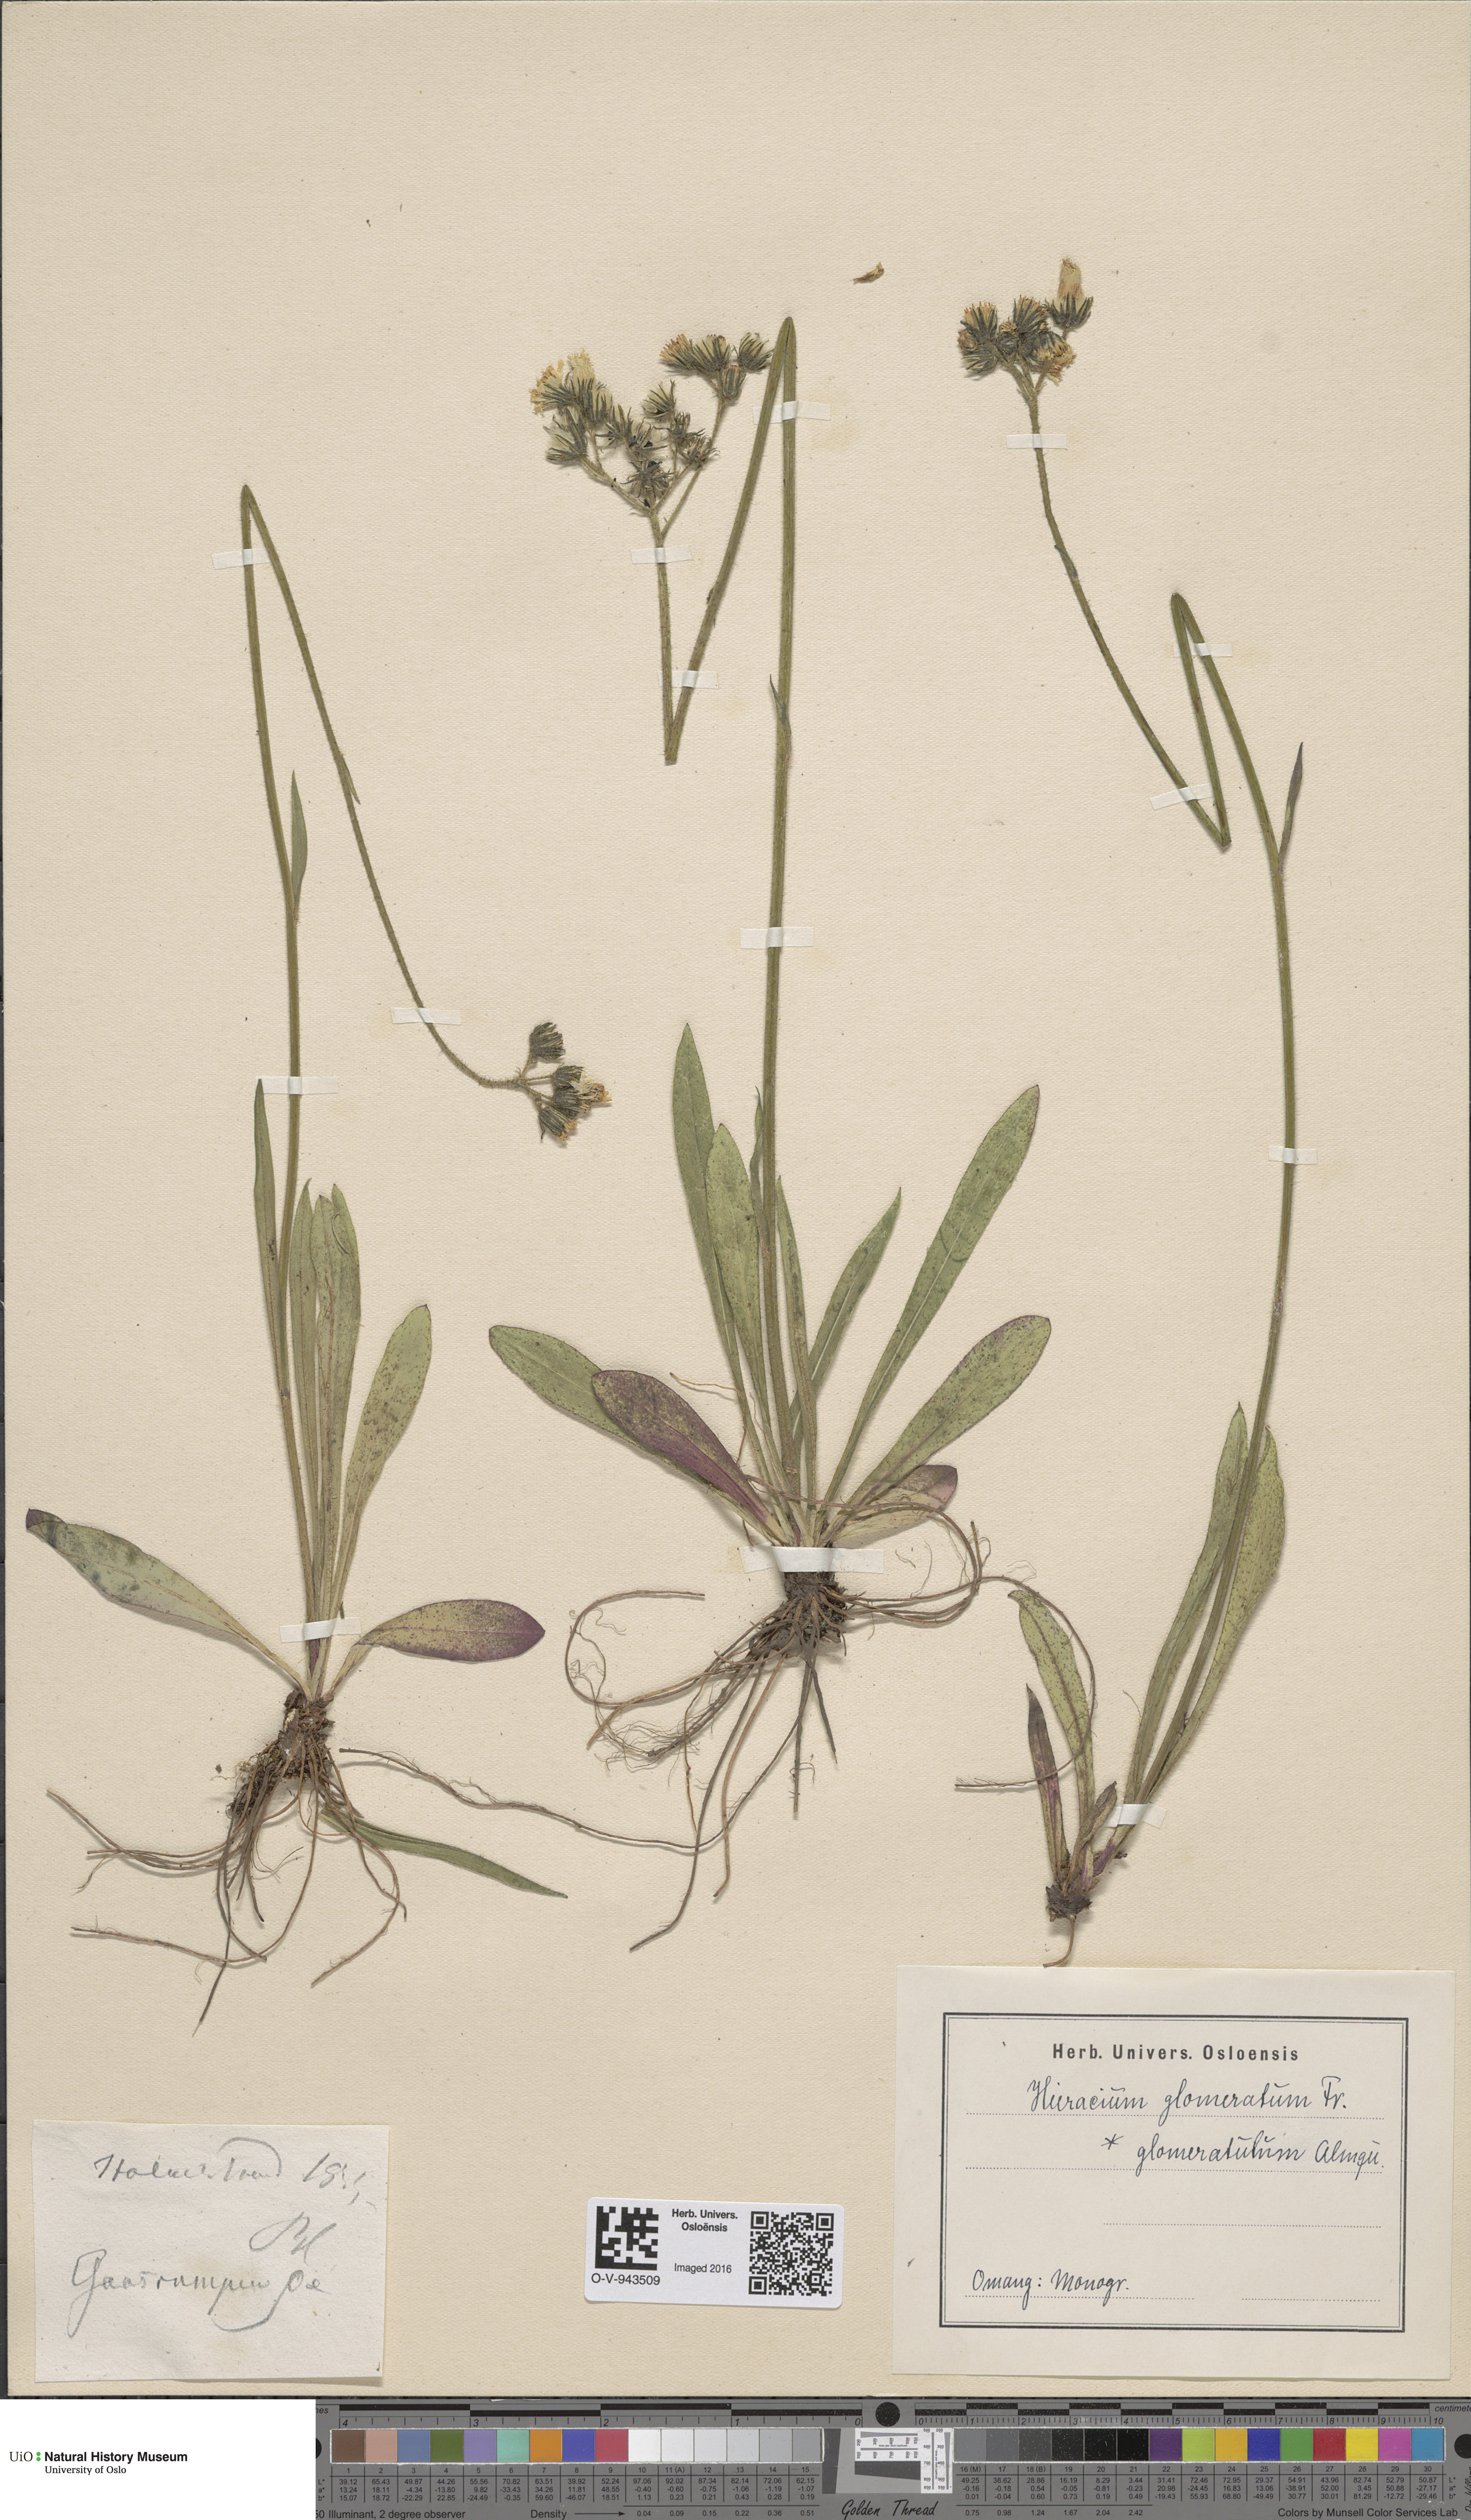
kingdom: Plantae
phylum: Tracheophyta
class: Magnoliopsida
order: Asterales
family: Asteraceae
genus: Pilosella
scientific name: Pilosella glomerata
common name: Queen devil hawkweed
